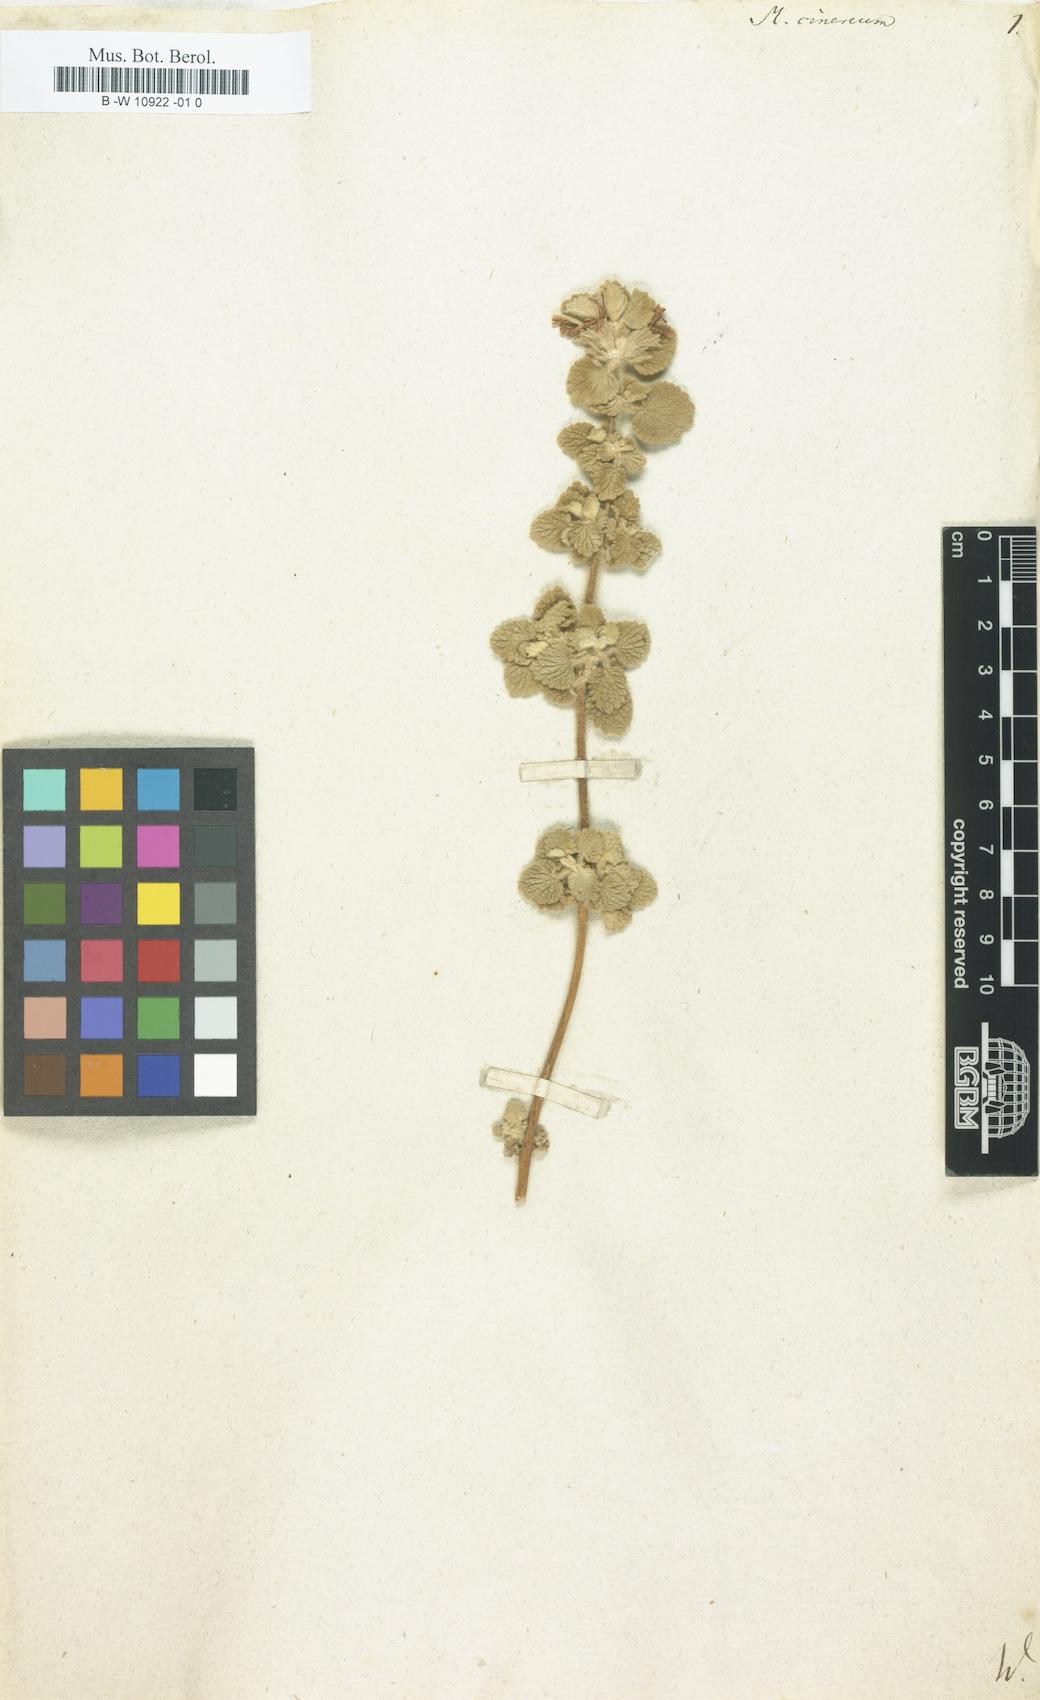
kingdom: Plantae
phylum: Tracheophyta
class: Magnoliopsida
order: Lamiales
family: Lamiaceae
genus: Marrubium
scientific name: Marrubium cinereum
